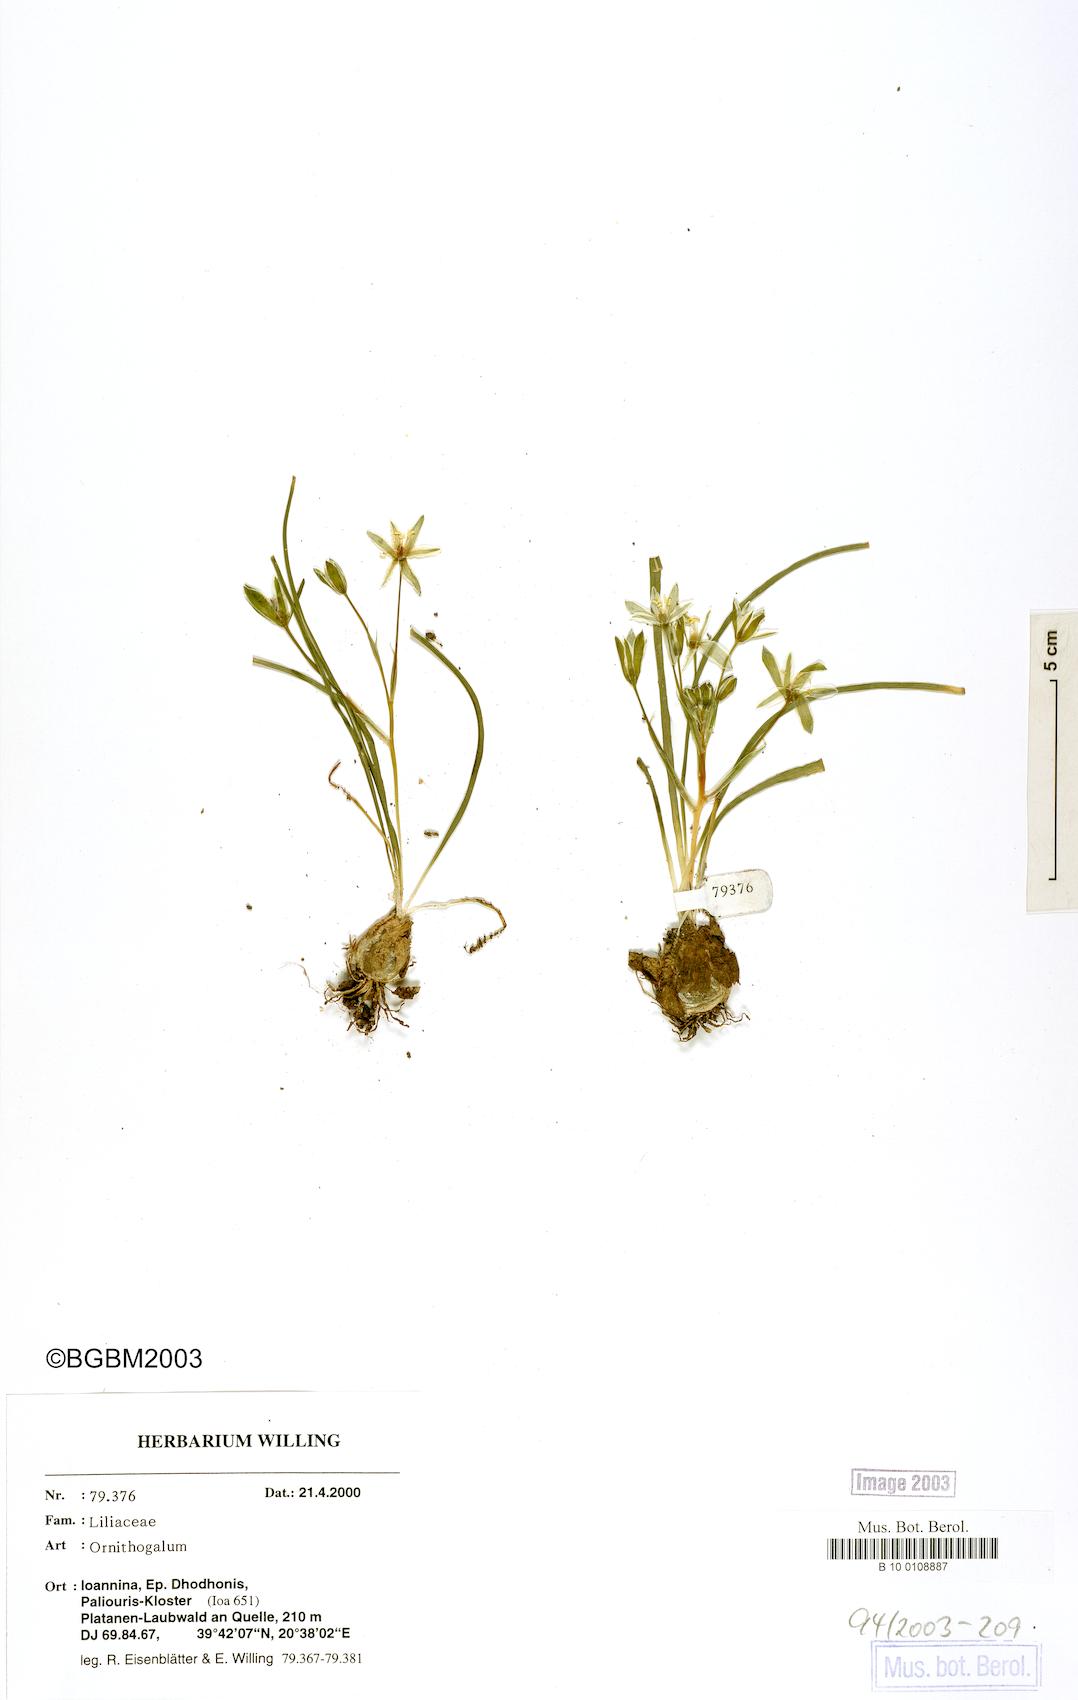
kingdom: Plantae
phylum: Tracheophyta
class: Liliopsida
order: Asparagales
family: Asparagaceae
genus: Ornithogalum
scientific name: Ornithogalum
